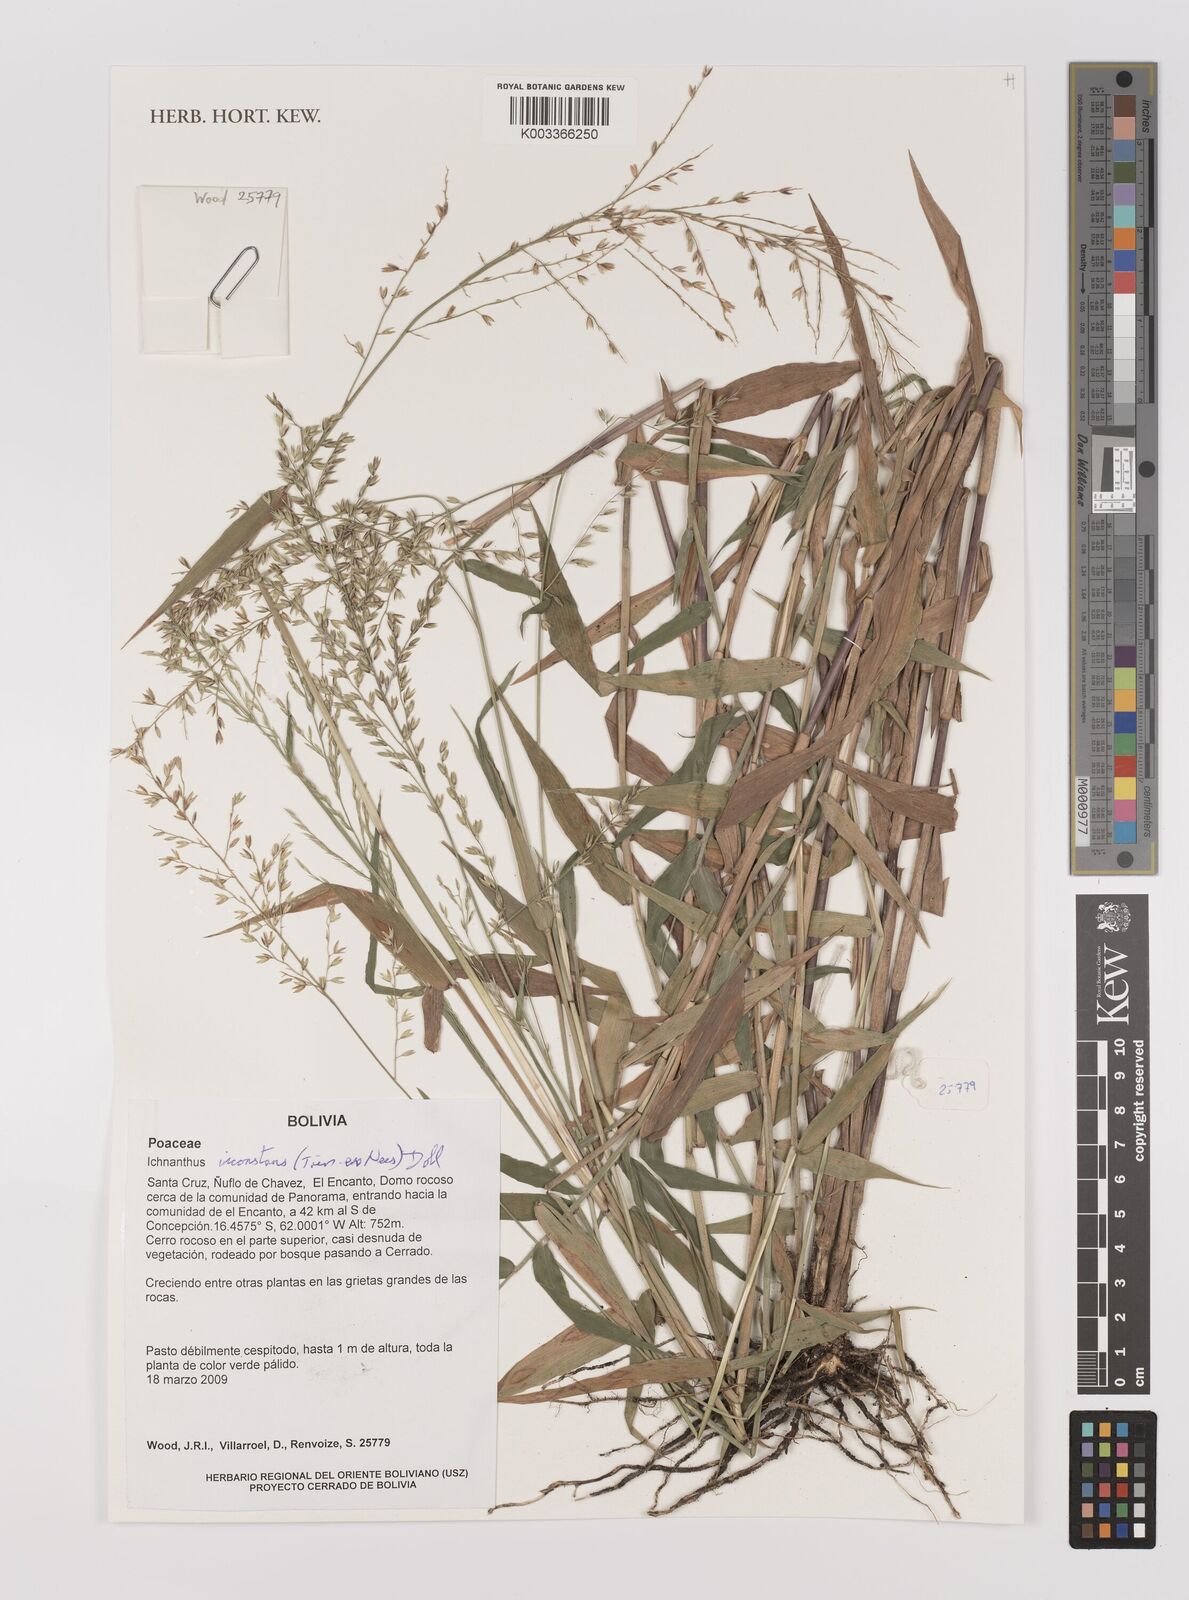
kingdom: Plantae
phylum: Tracheophyta
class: Liliopsida
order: Poales
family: Poaceae
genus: Ichnanthus
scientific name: Ichnanthus inconstans
